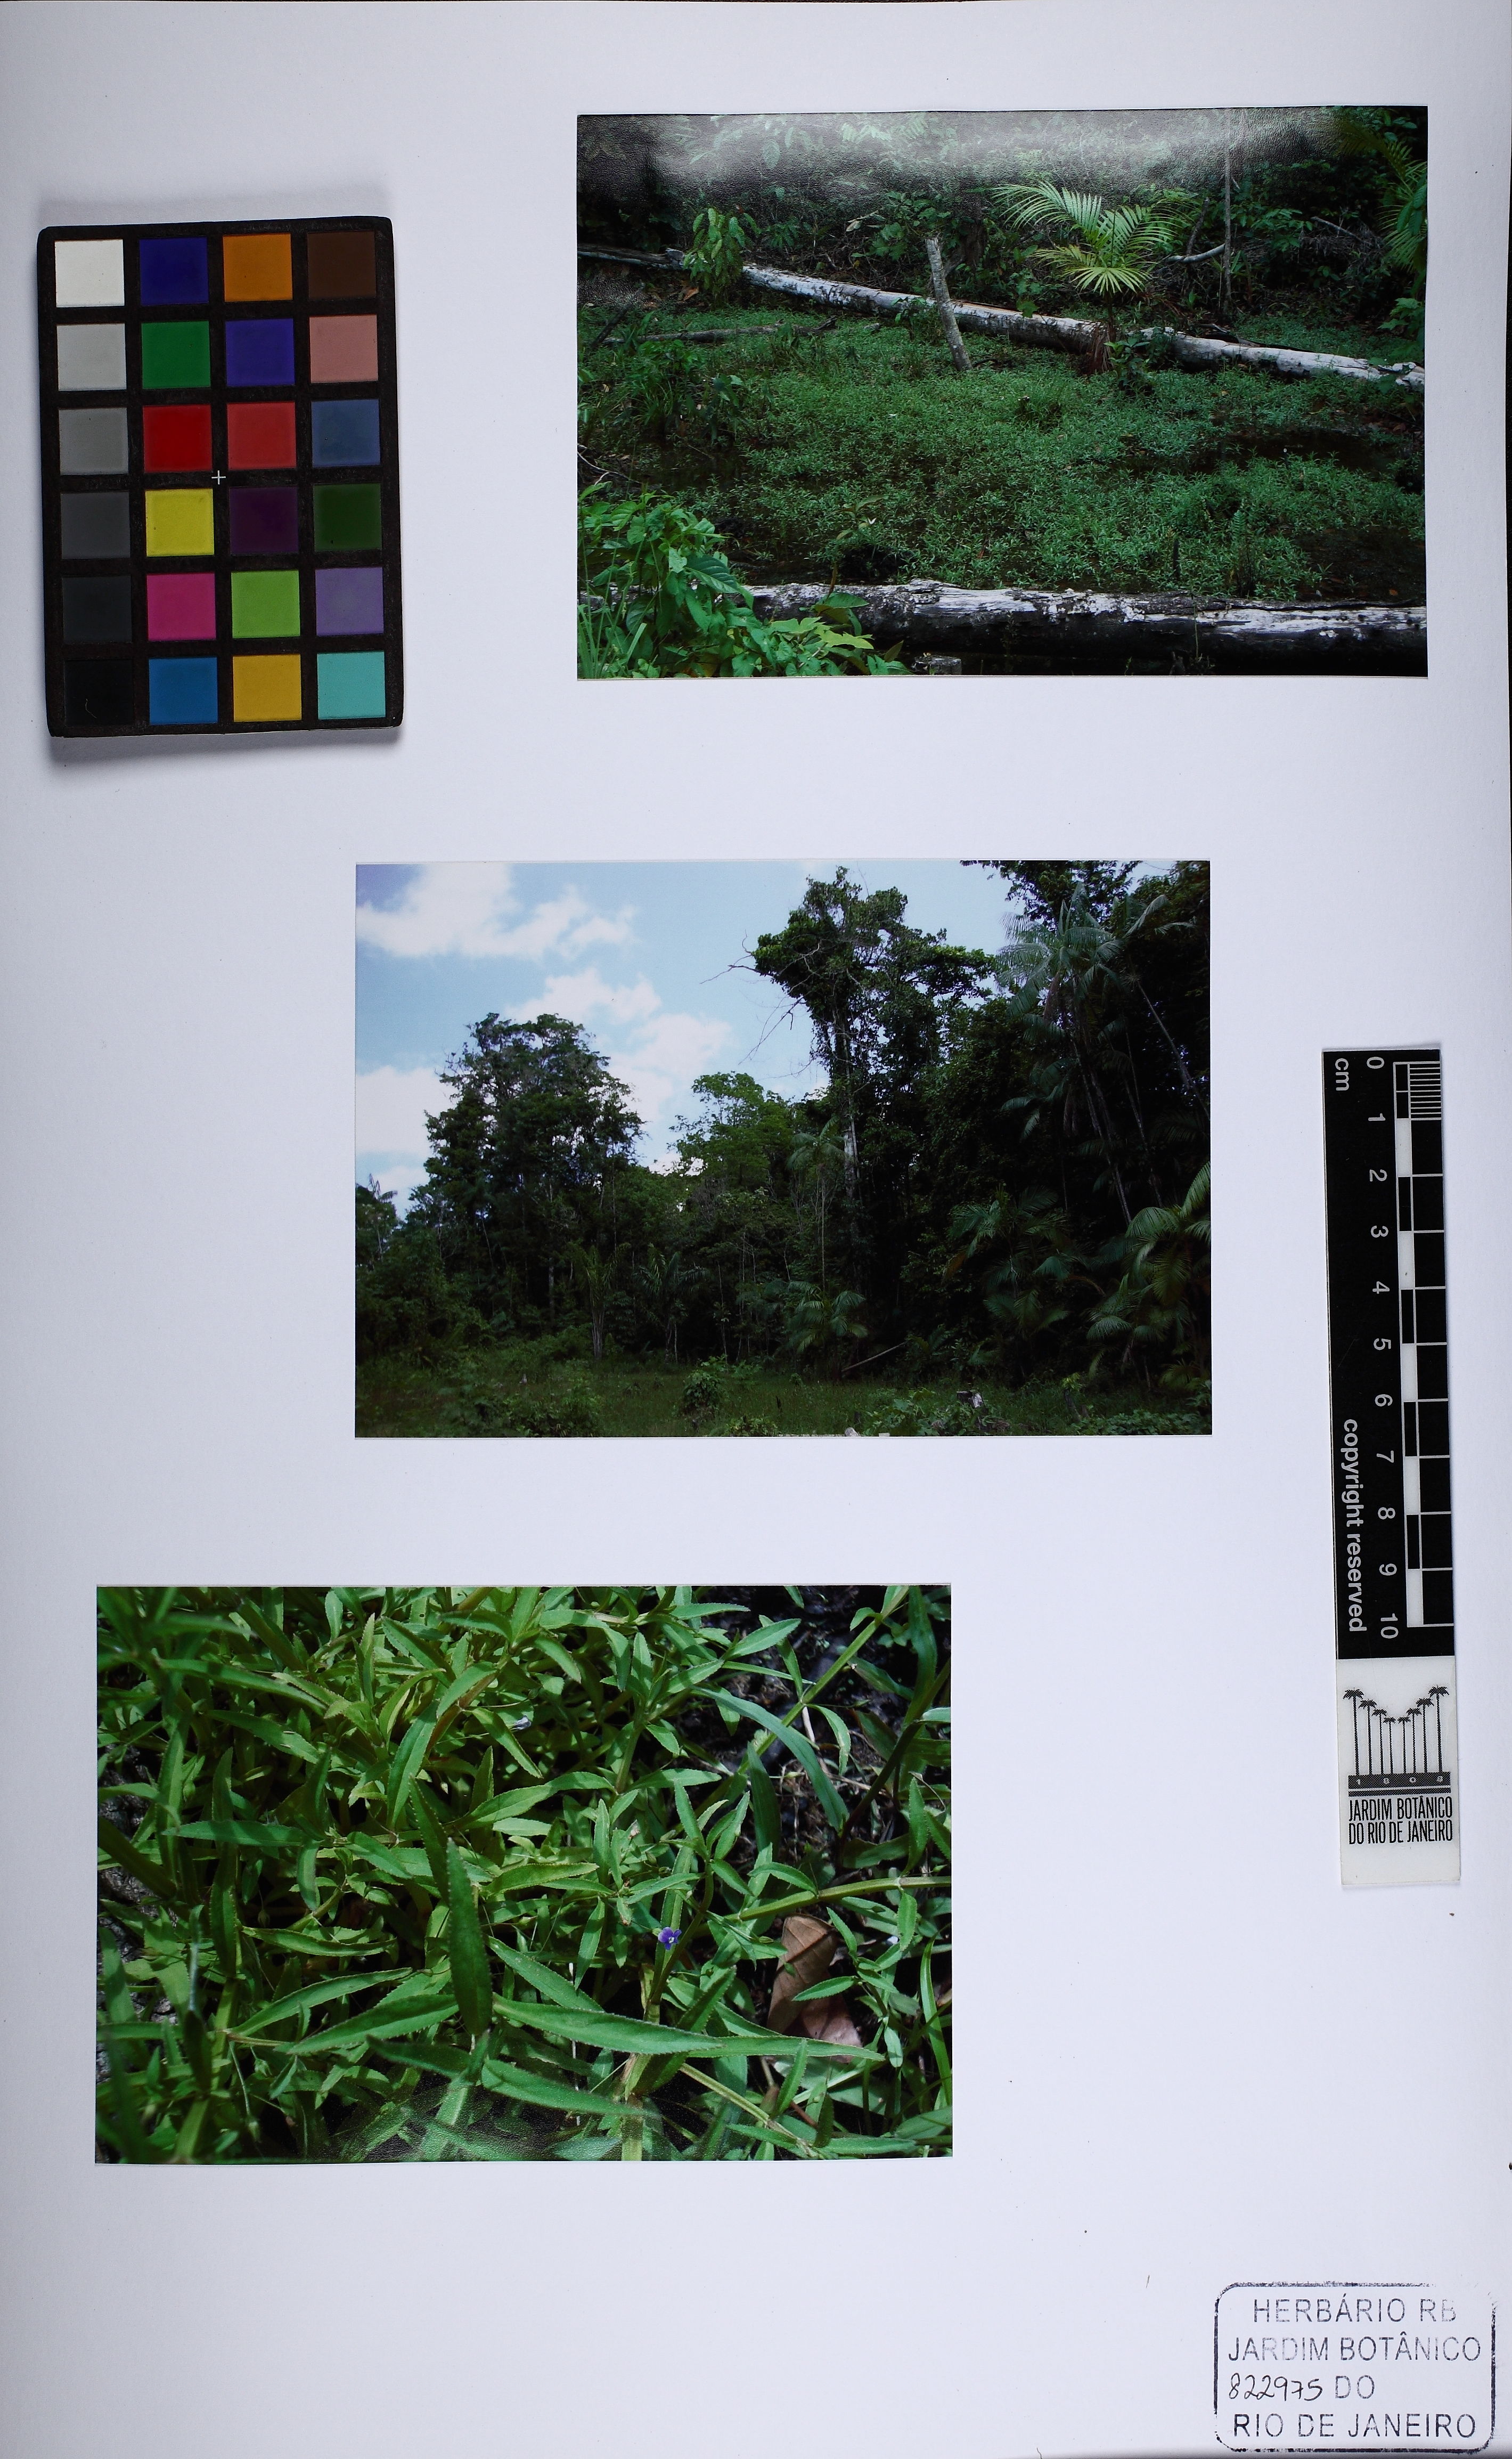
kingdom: Plantae
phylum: Tracheophyta
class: Magnoliopsida
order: Lamiales
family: Plantaginaceae
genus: Conobea
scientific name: Conobea scoparioides
